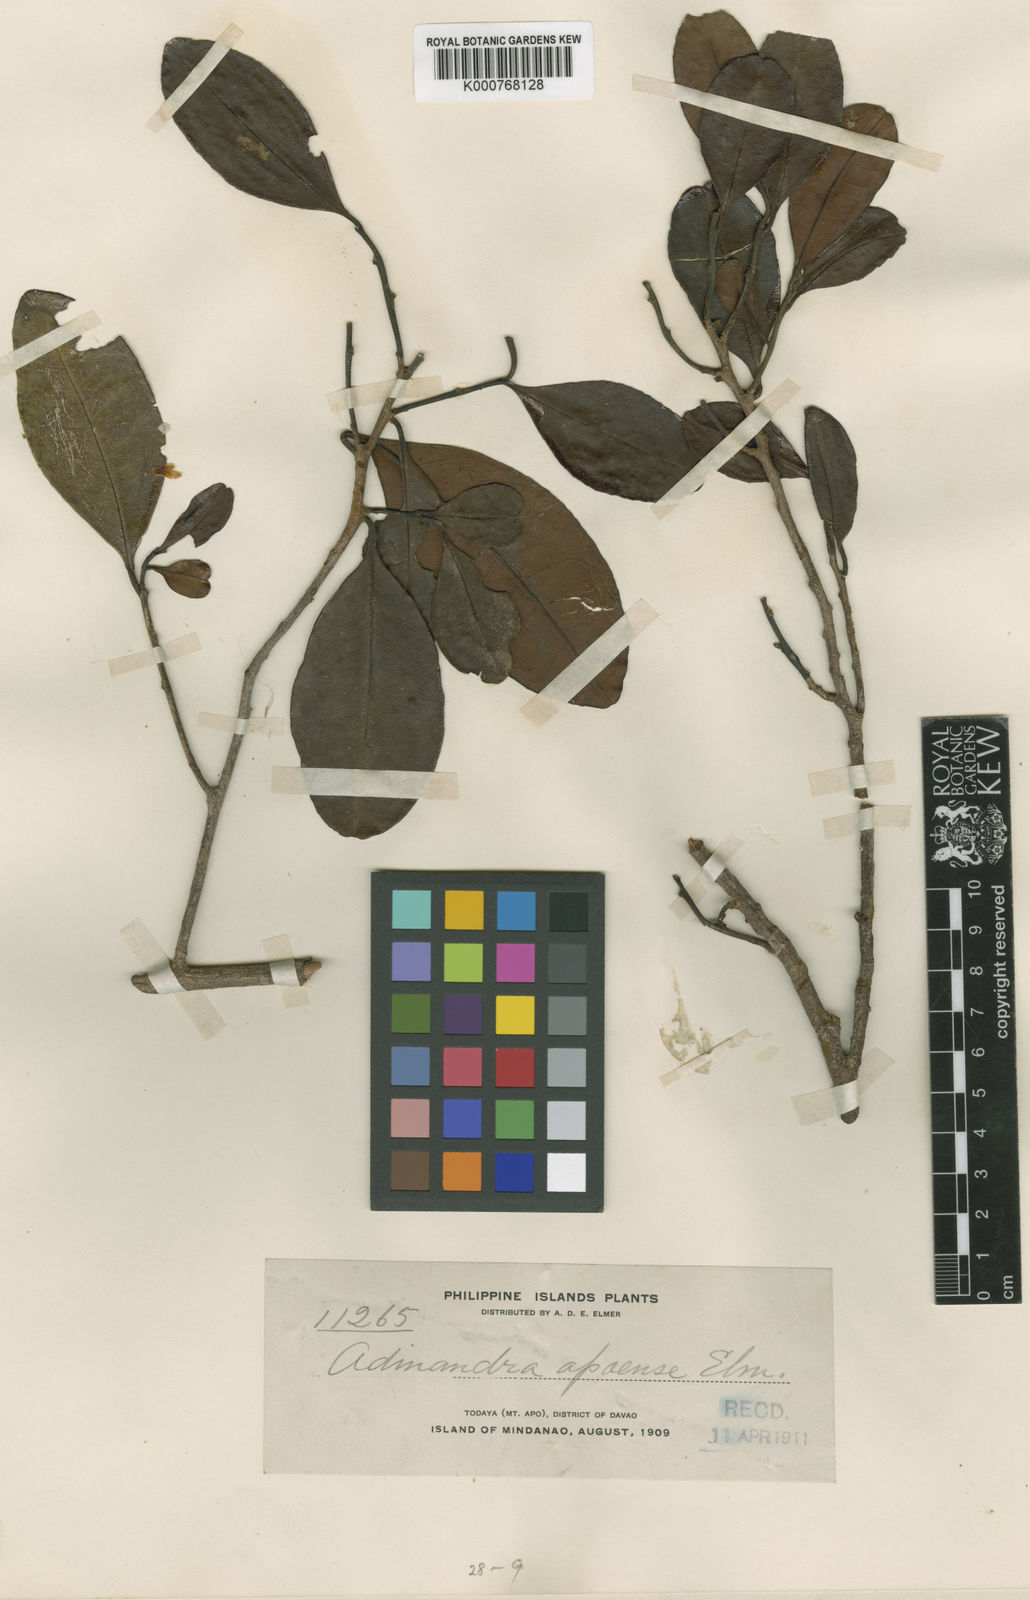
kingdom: Plantae
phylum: Tracheophyta
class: Magnoliopsida
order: Ericales
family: Pentaphylacaceae
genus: Adinandra
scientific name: Adinandra apoensis
